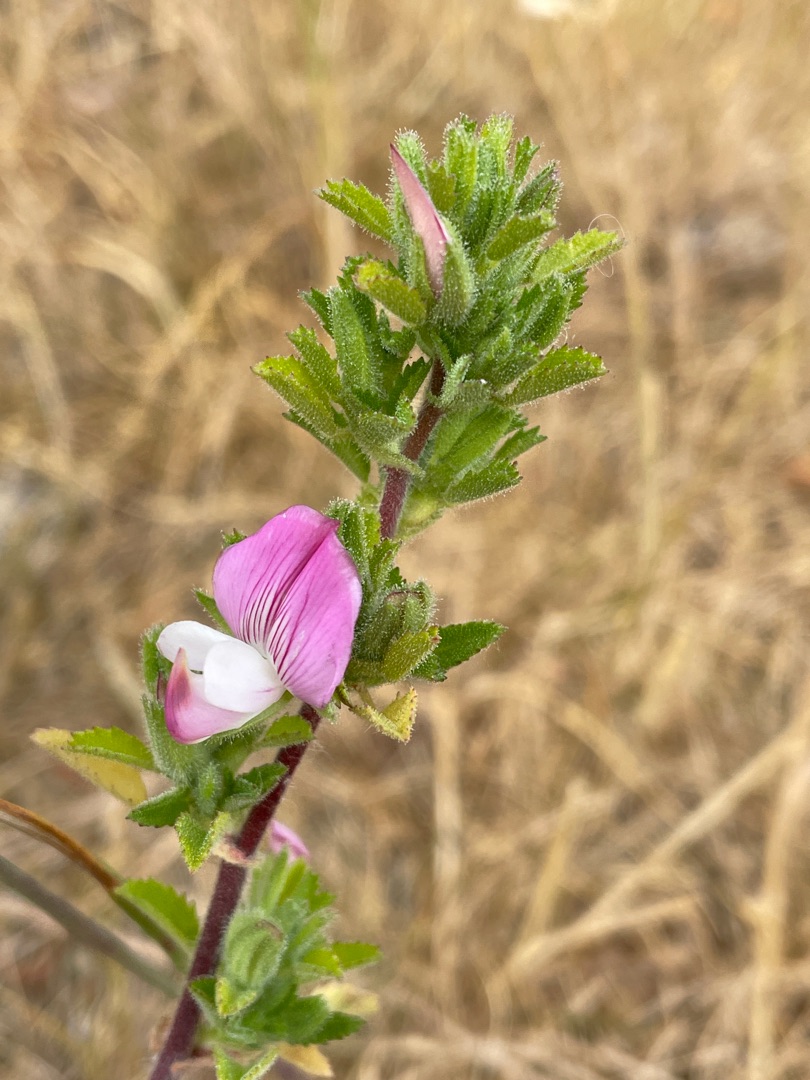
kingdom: Plantae
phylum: Tracheophyta
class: Magnoliopsida
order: Fabales
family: Fabaceae
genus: Ononis
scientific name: Ononis spinosa
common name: Mark-krageklo
